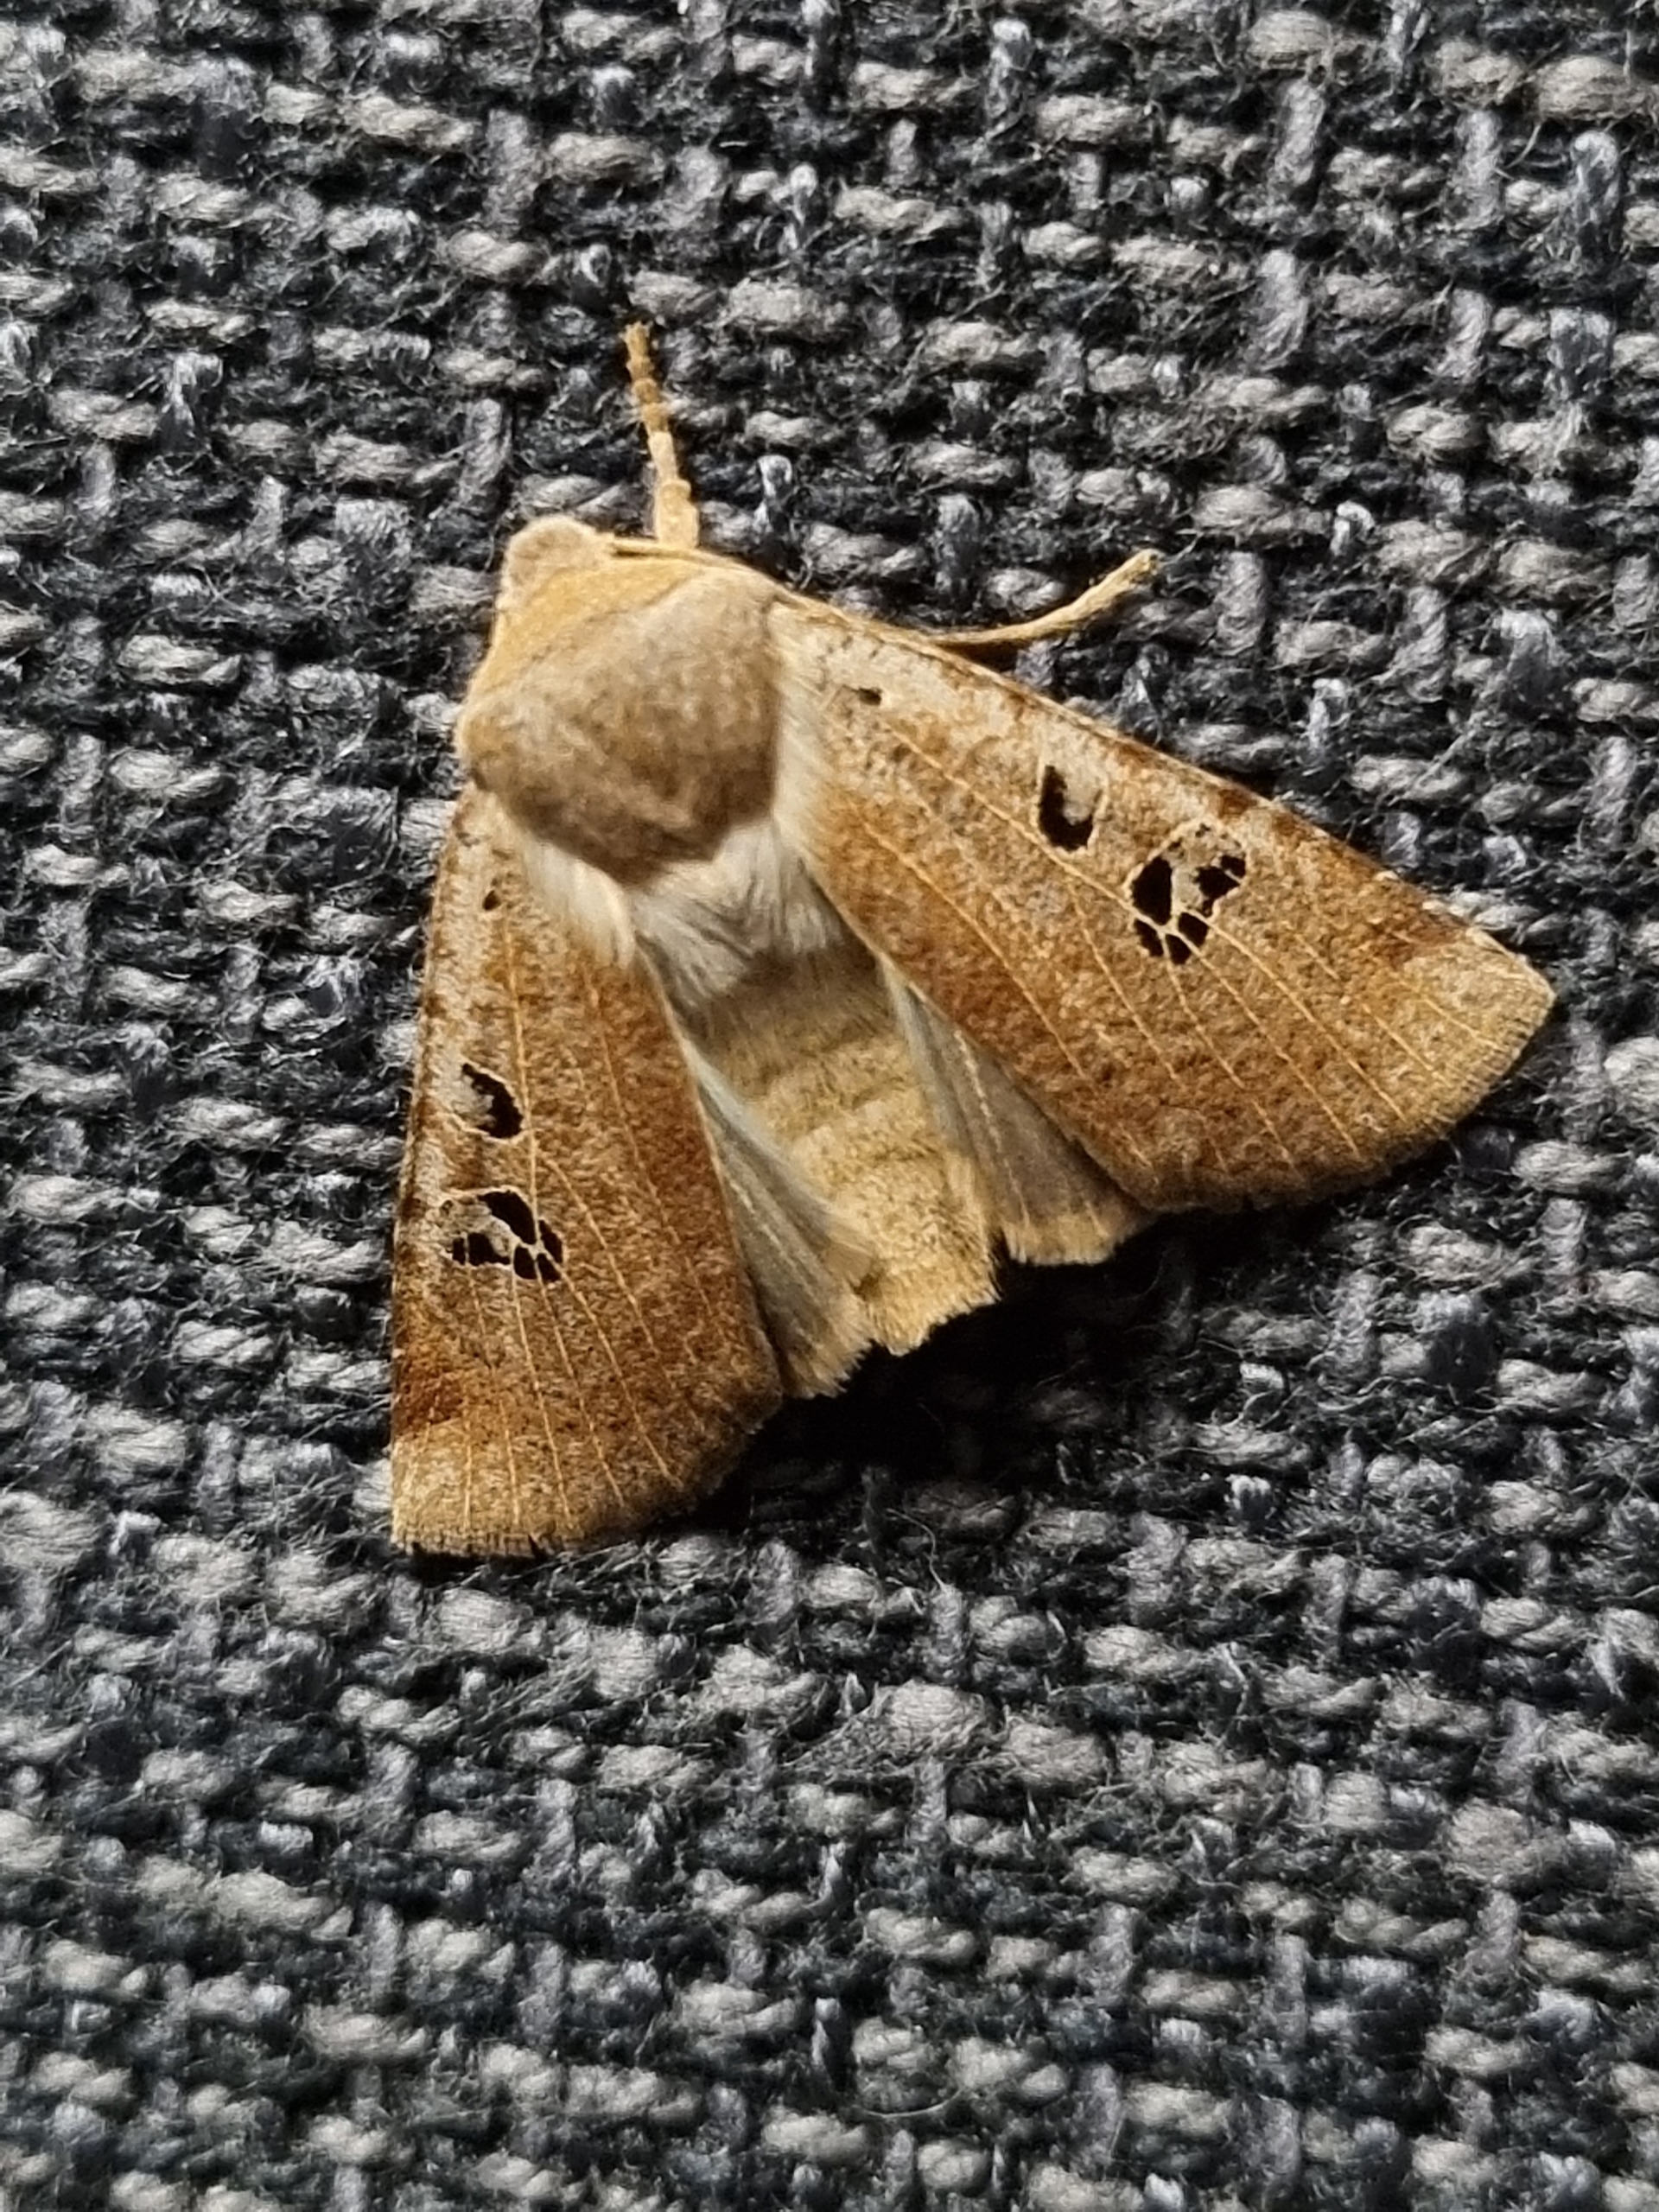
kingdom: Animalia
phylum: Arthropoda
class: Insecta
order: Lepidoptera
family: Noctuidae
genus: Conistra
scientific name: Conistra rubiginosa
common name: Sortmærket overvintringsugle
